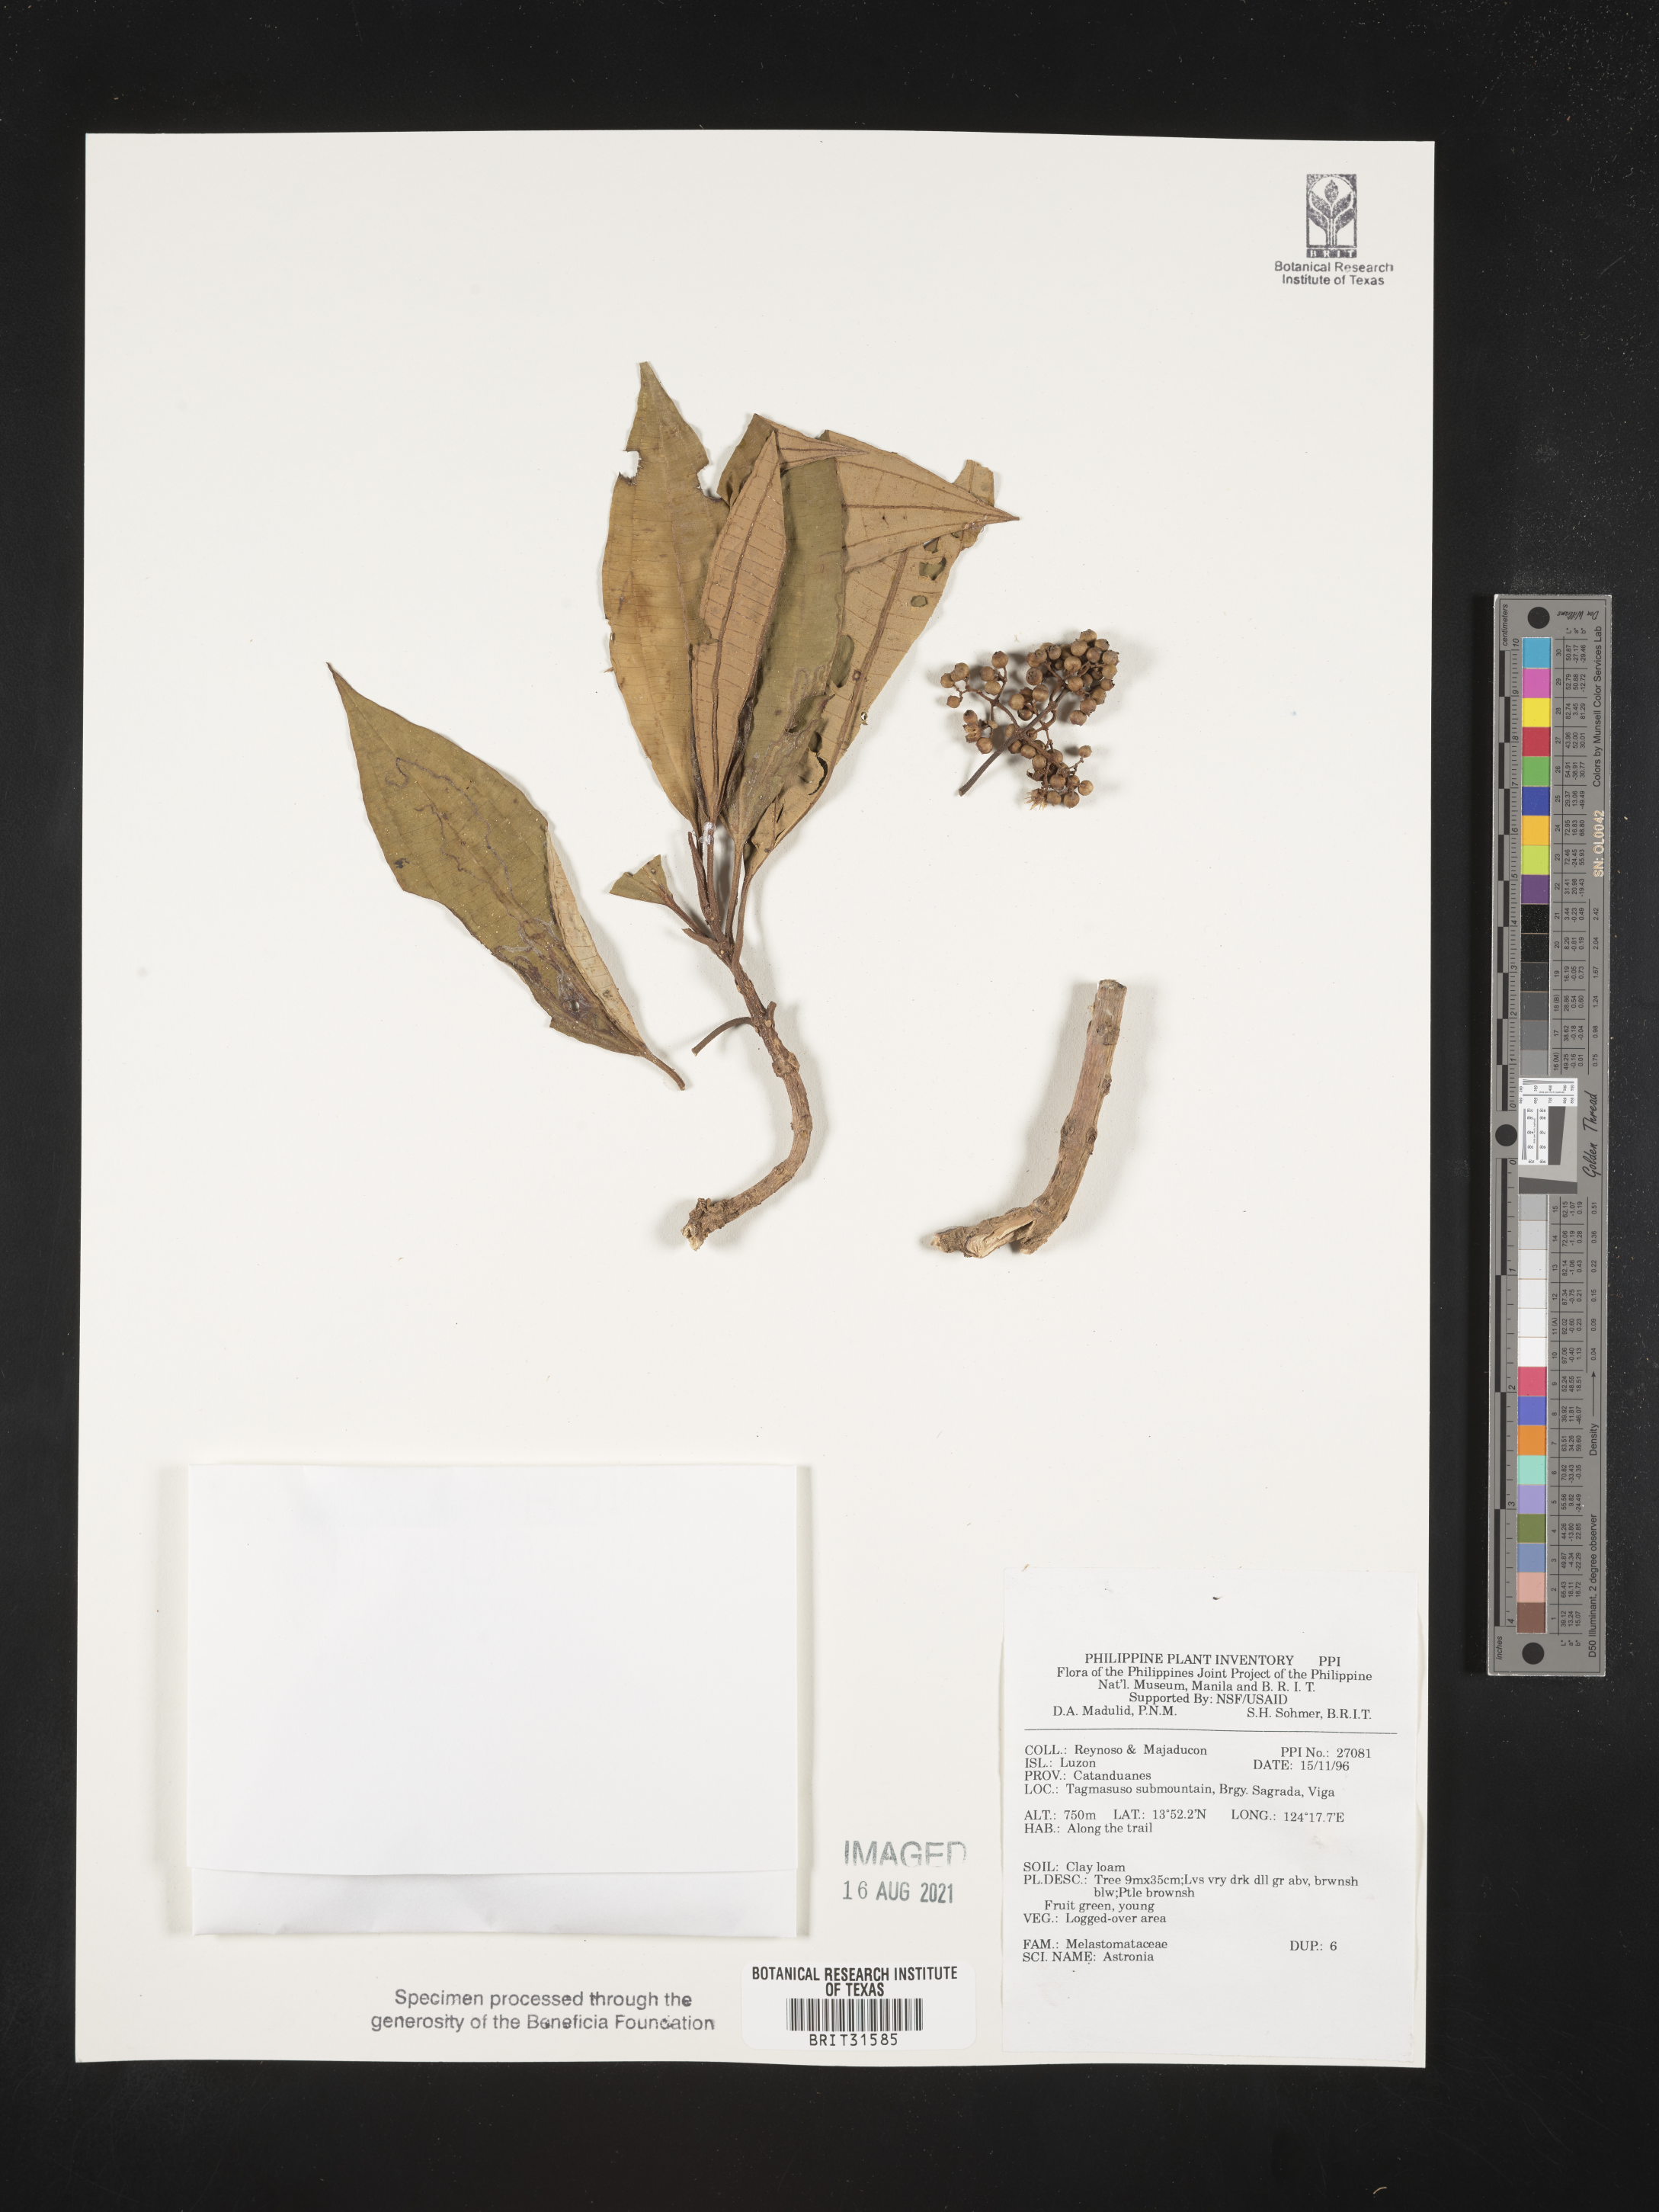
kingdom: Plantae
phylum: Tracheophyta
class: Magnoliopsida
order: Myrtales
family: Melastomataceae
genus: Astronia
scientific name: Astronia
